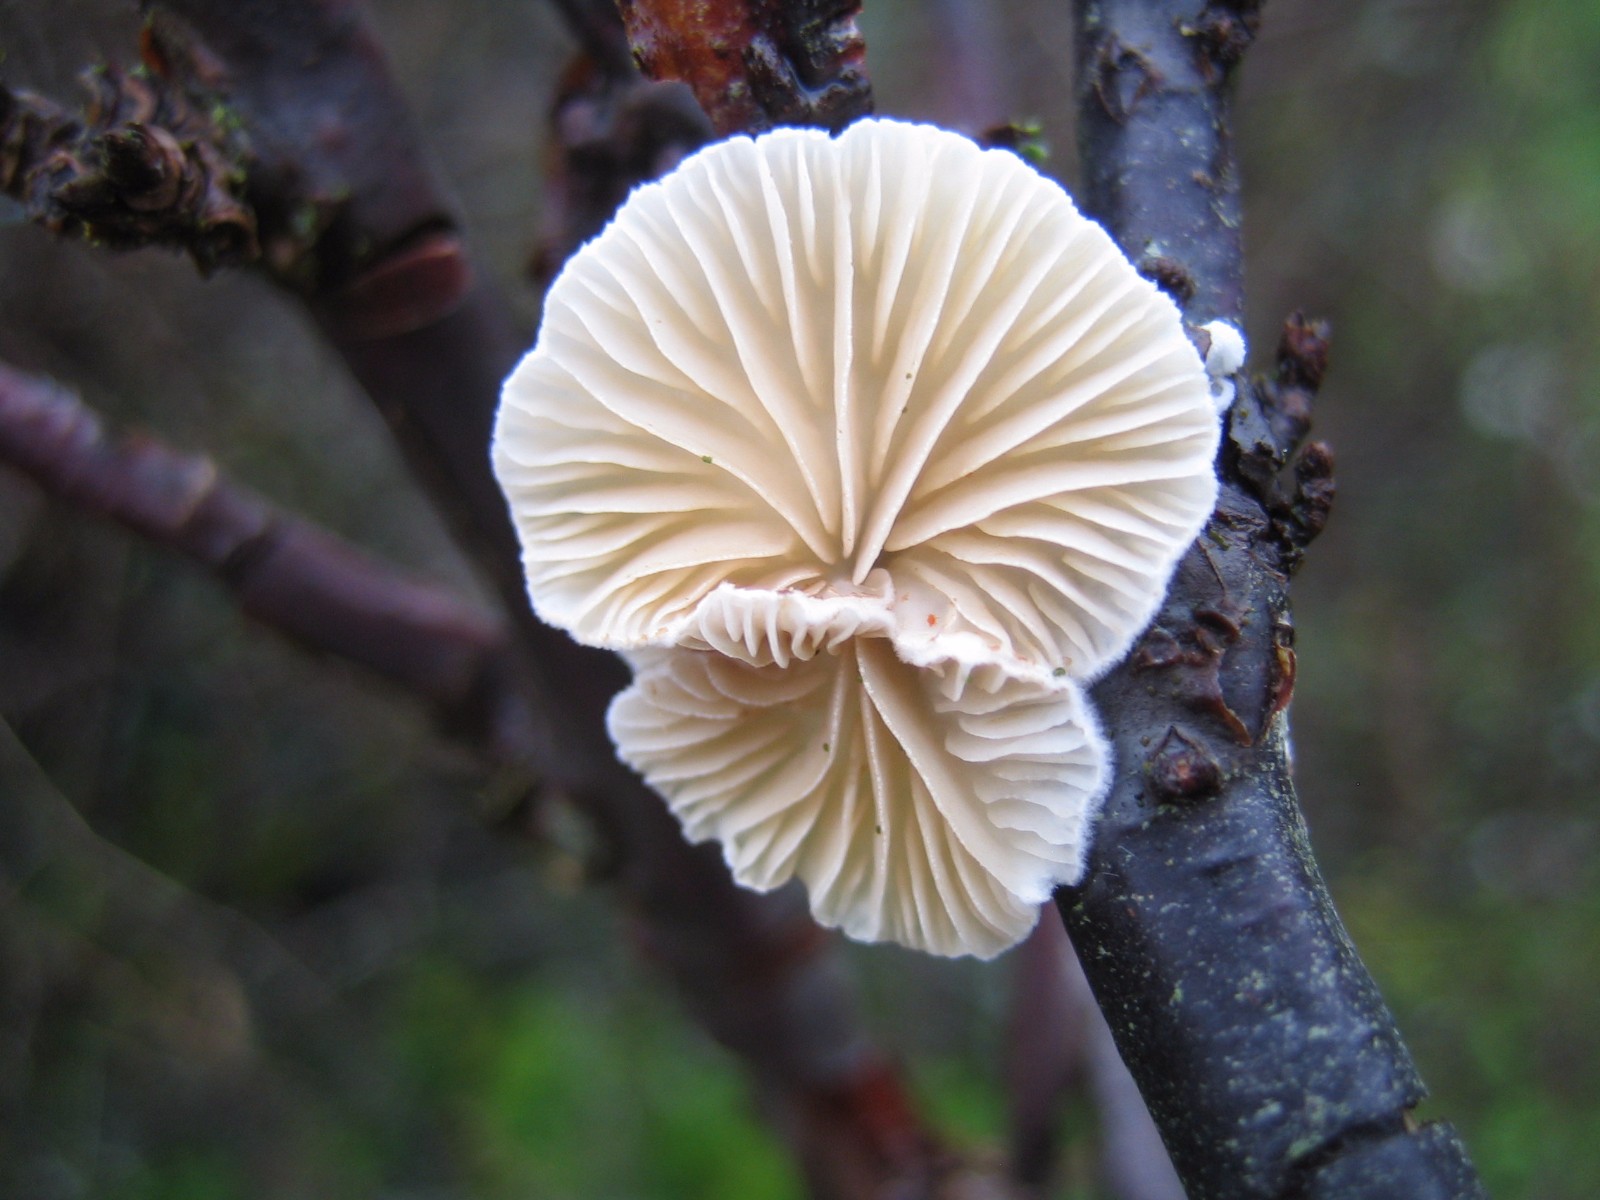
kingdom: Fungi
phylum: Basidiomycota
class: Agaricomycetes
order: Agaricales
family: Crepidotaceae
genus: Crepidotus
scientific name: Crepidotus
